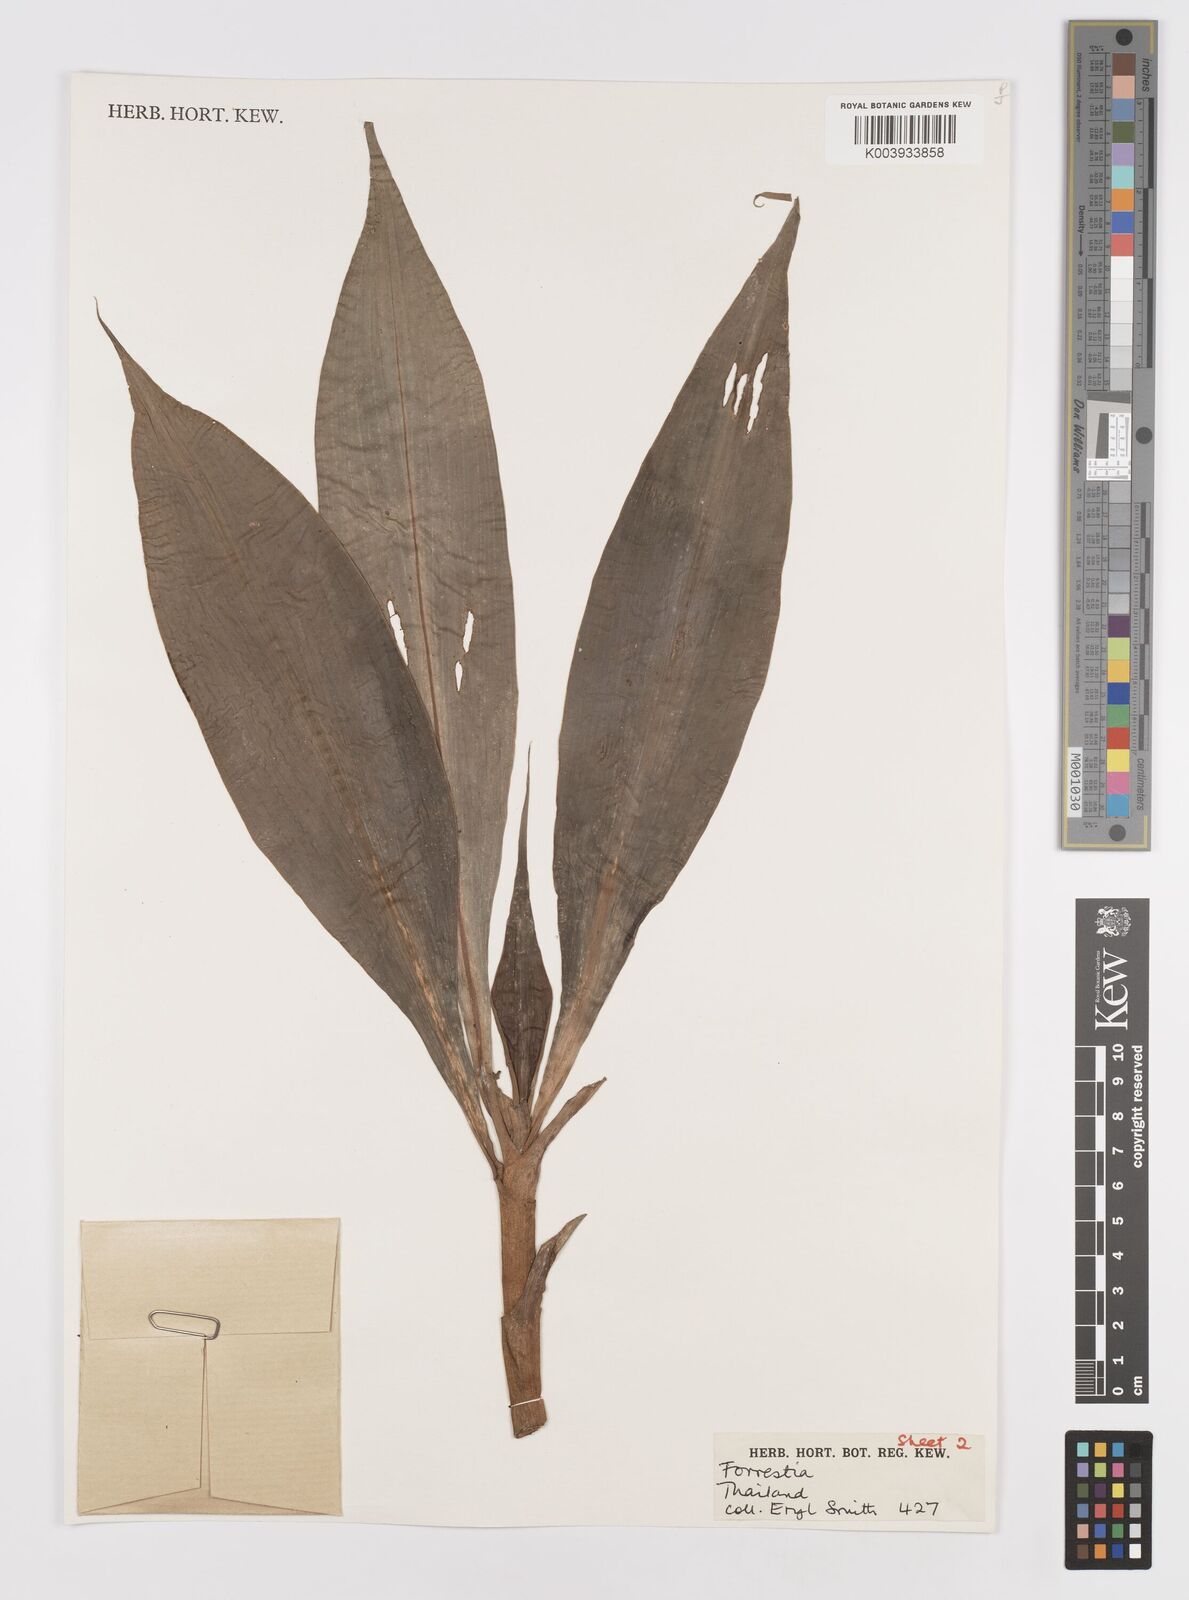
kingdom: Plantae
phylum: Tracheophyta
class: Liliopsida
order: Commelinales
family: Commelinaceae
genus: Amischotolype
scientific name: Amischotolype marginata
